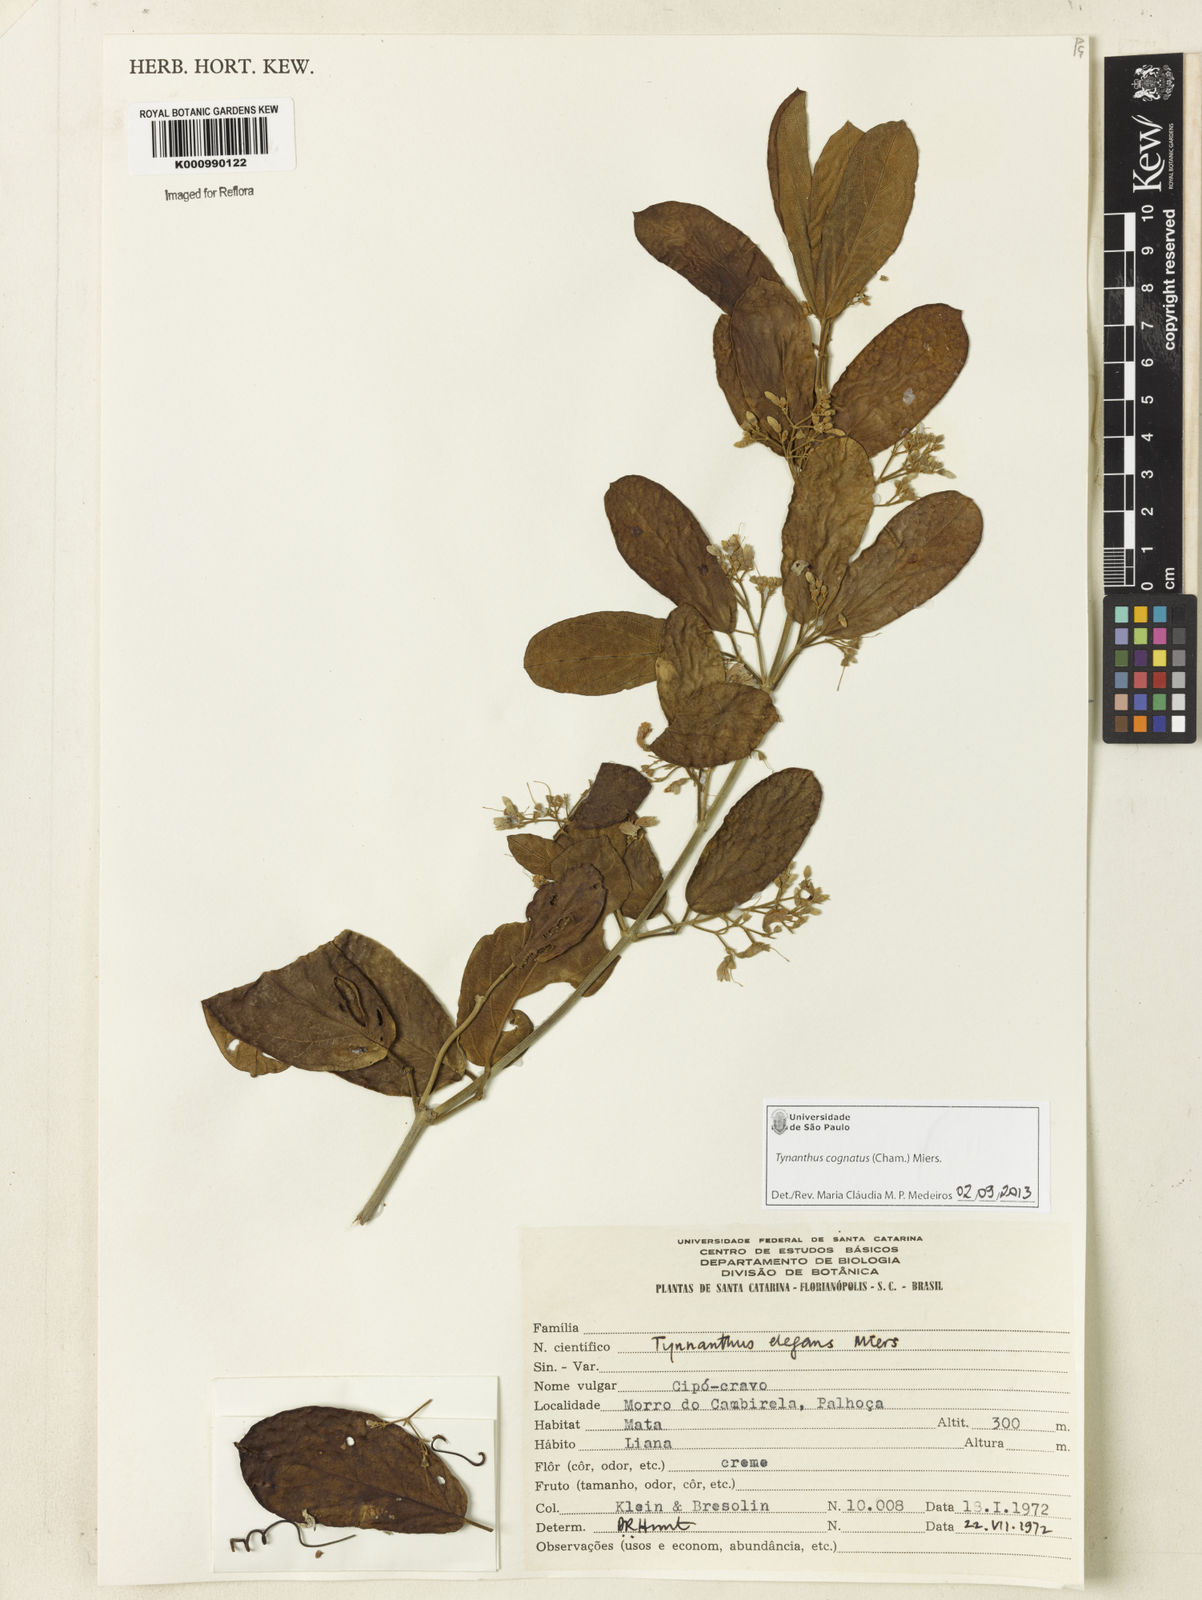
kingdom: Plantae
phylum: Tracheophyta
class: Magnoliopsida
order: Lamiales
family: Bignoniaceae
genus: Tynanthus
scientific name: Tynanthus cognatus
